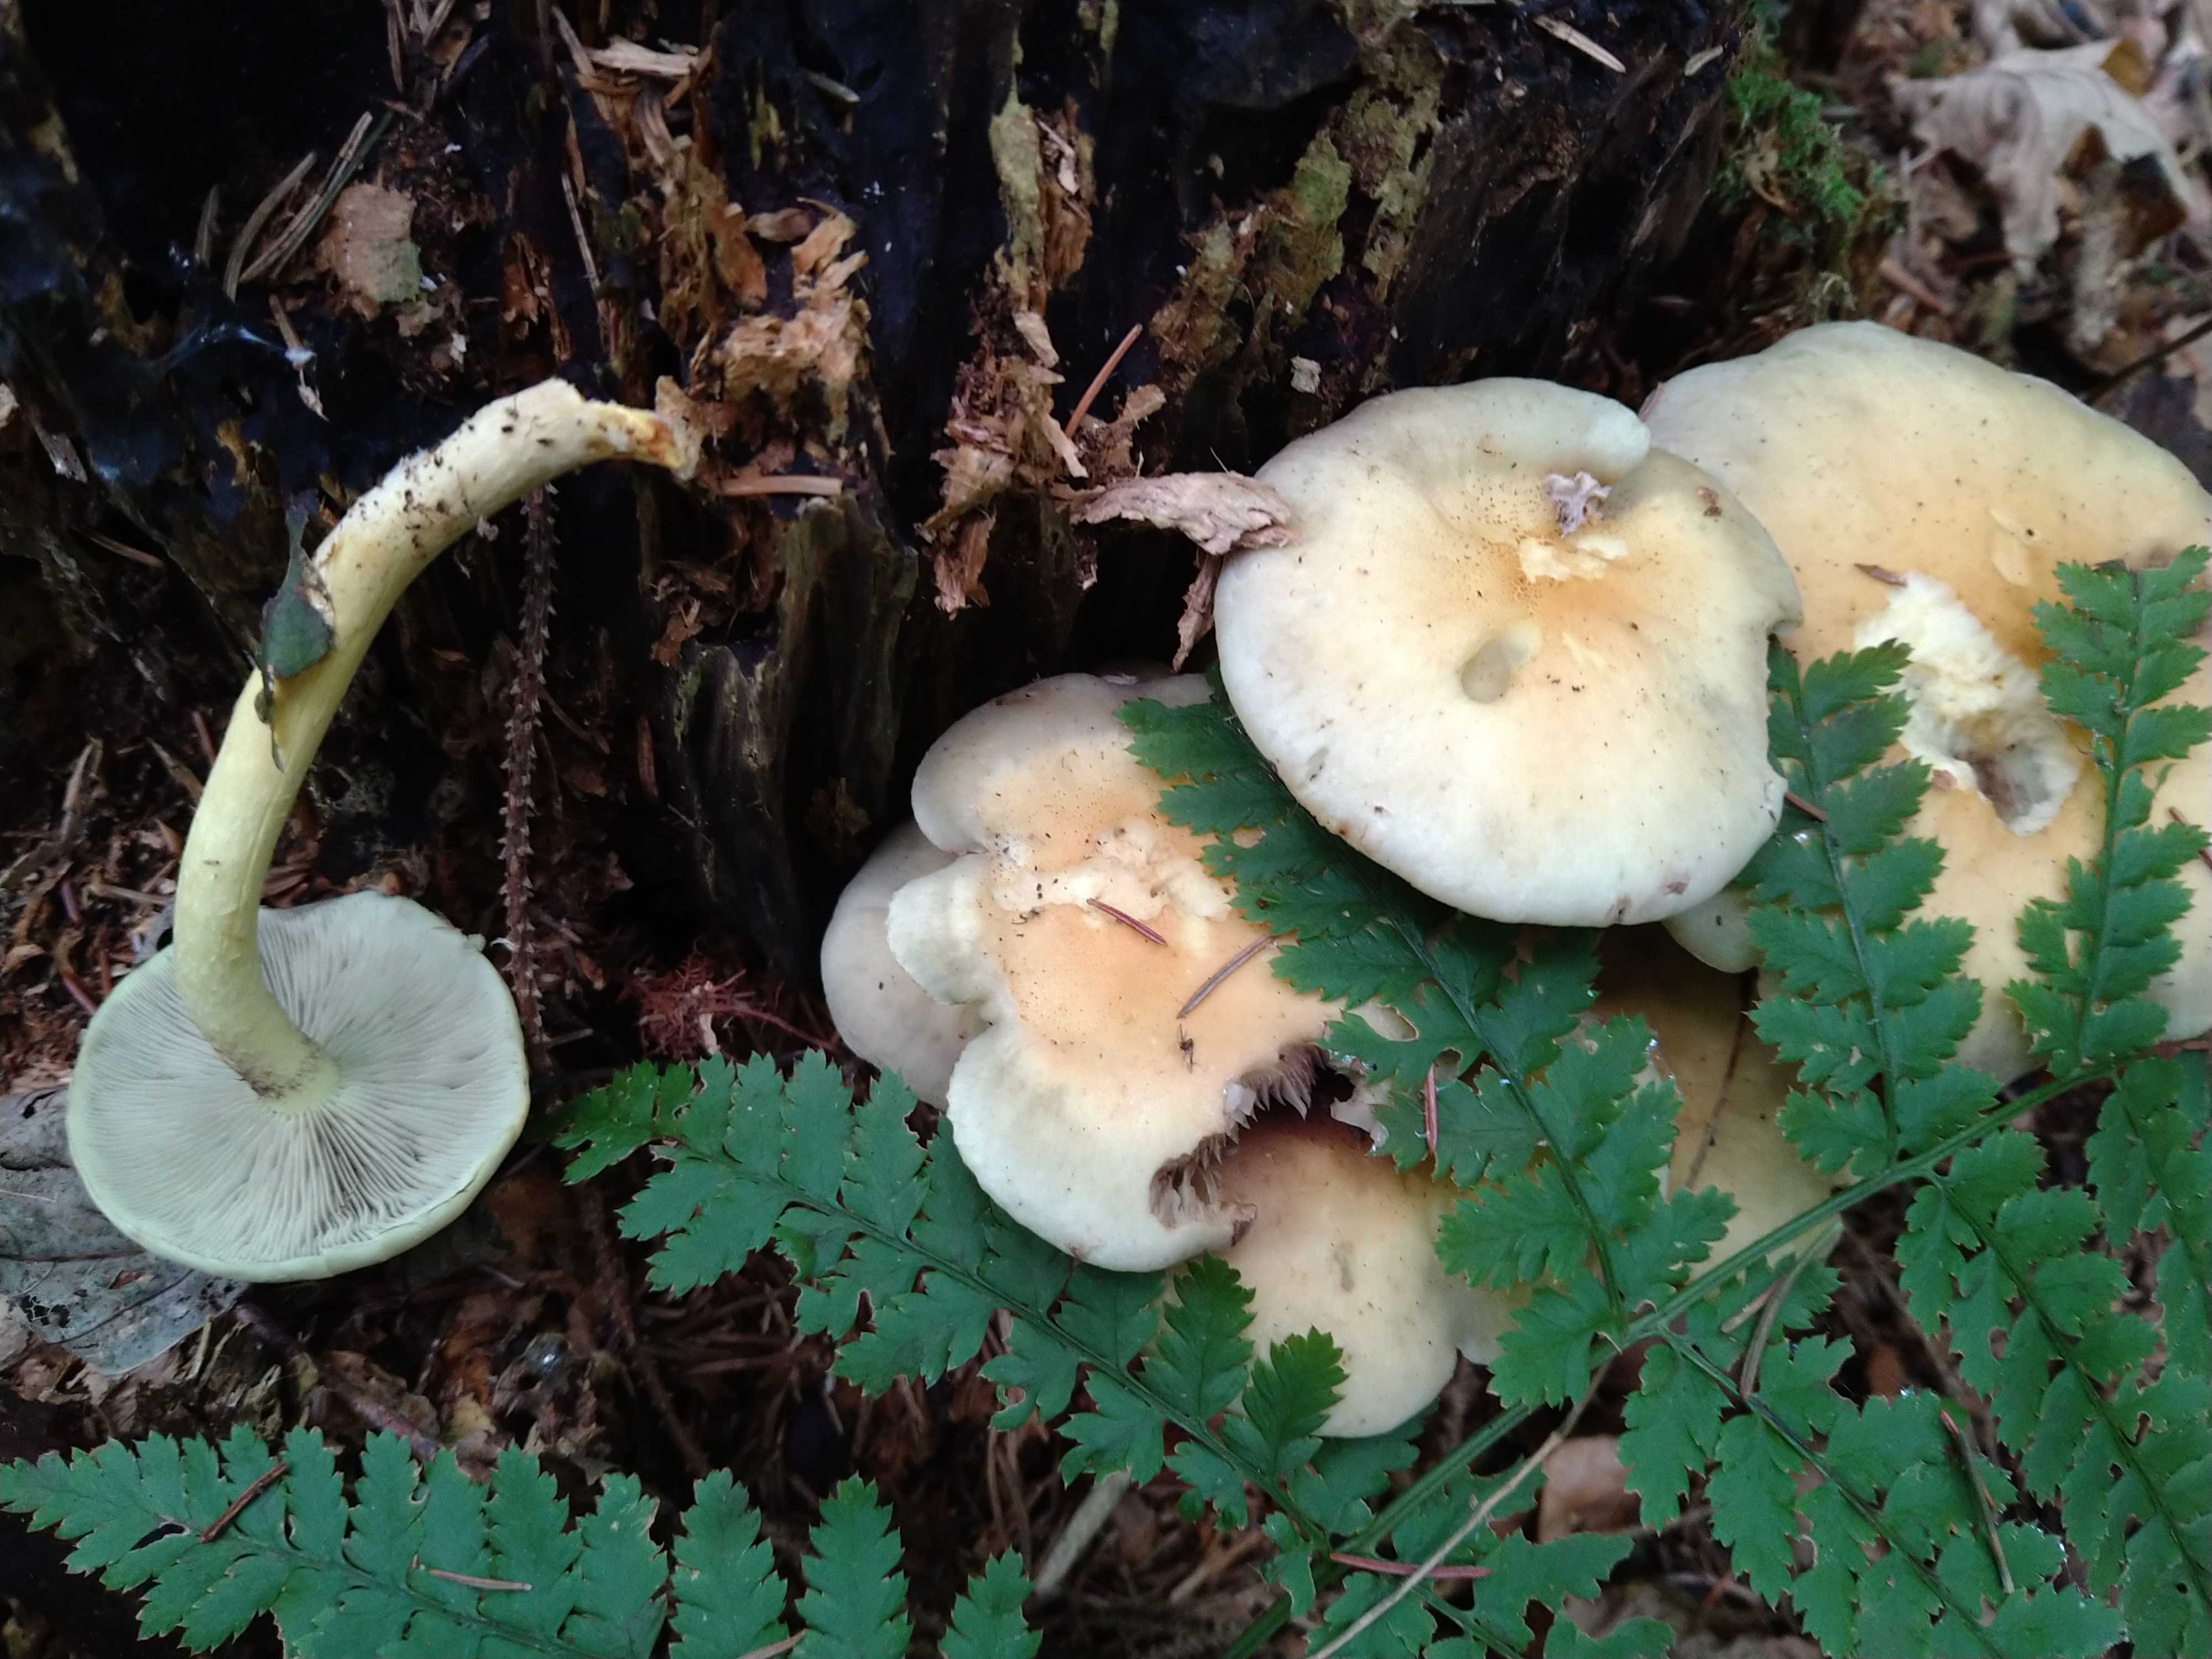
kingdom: Fungi
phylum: Basidiomycota
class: Agaricomycetes
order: Agaricales
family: Strophariaceae
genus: Hypholoma
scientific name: Hypholoma fasciculare
